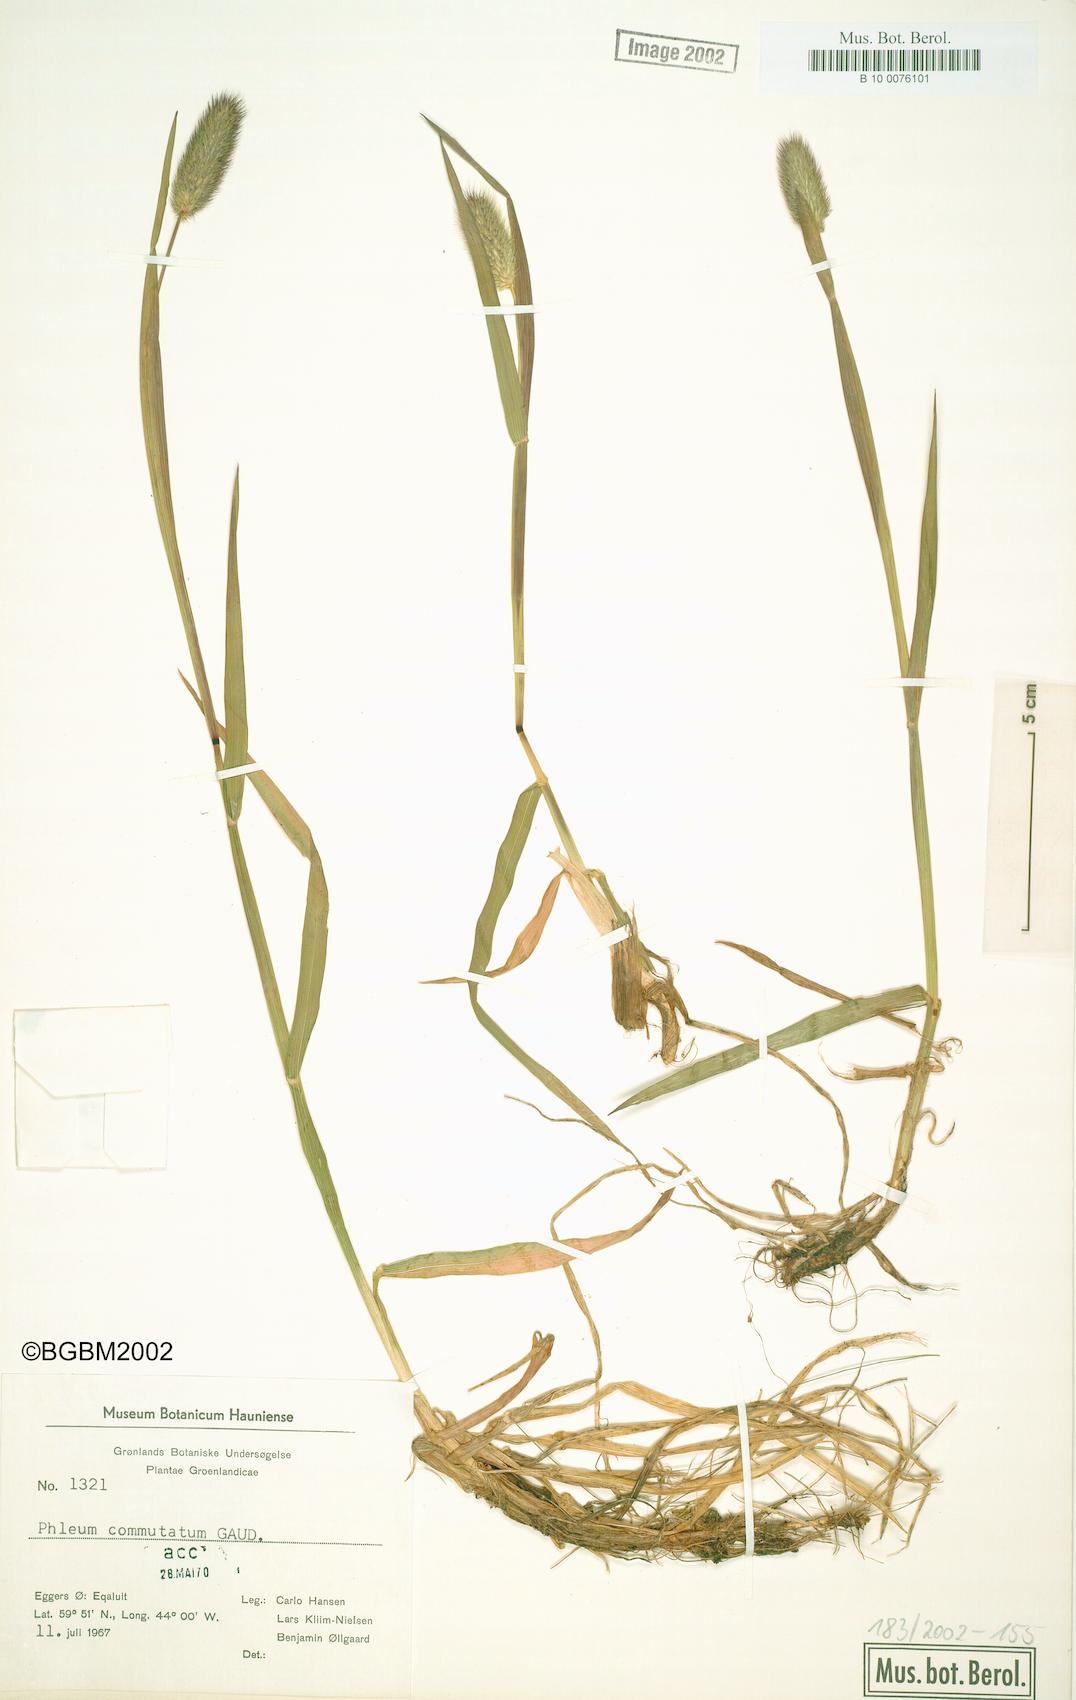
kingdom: Plantae
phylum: Tracheophyta
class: Liliopsida
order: Poales
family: Poaceae
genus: Phleum
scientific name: Phleum alpinum
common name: Alpine cat's-tail
